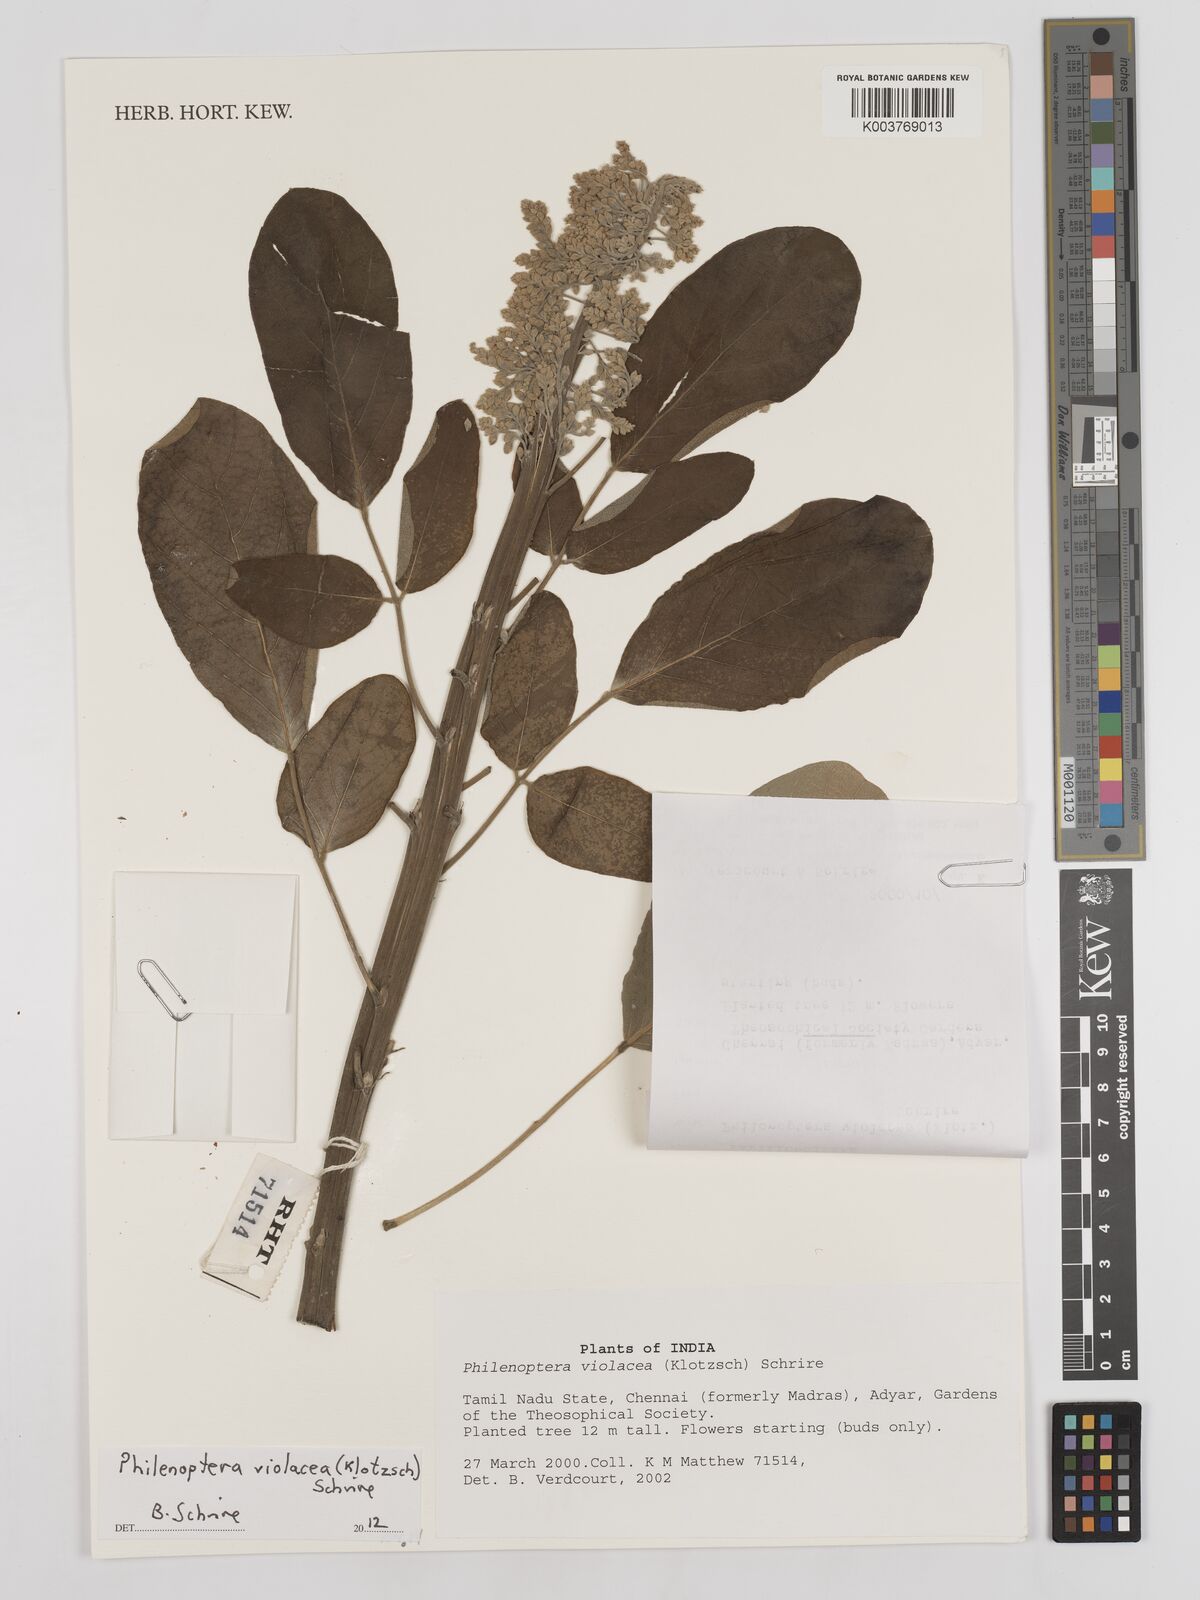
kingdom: Plantae
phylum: Tracheophyta
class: Magnoliopsida
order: Fabales
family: Fabaceae
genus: Philenoptera
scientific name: Philenoptera violacea
